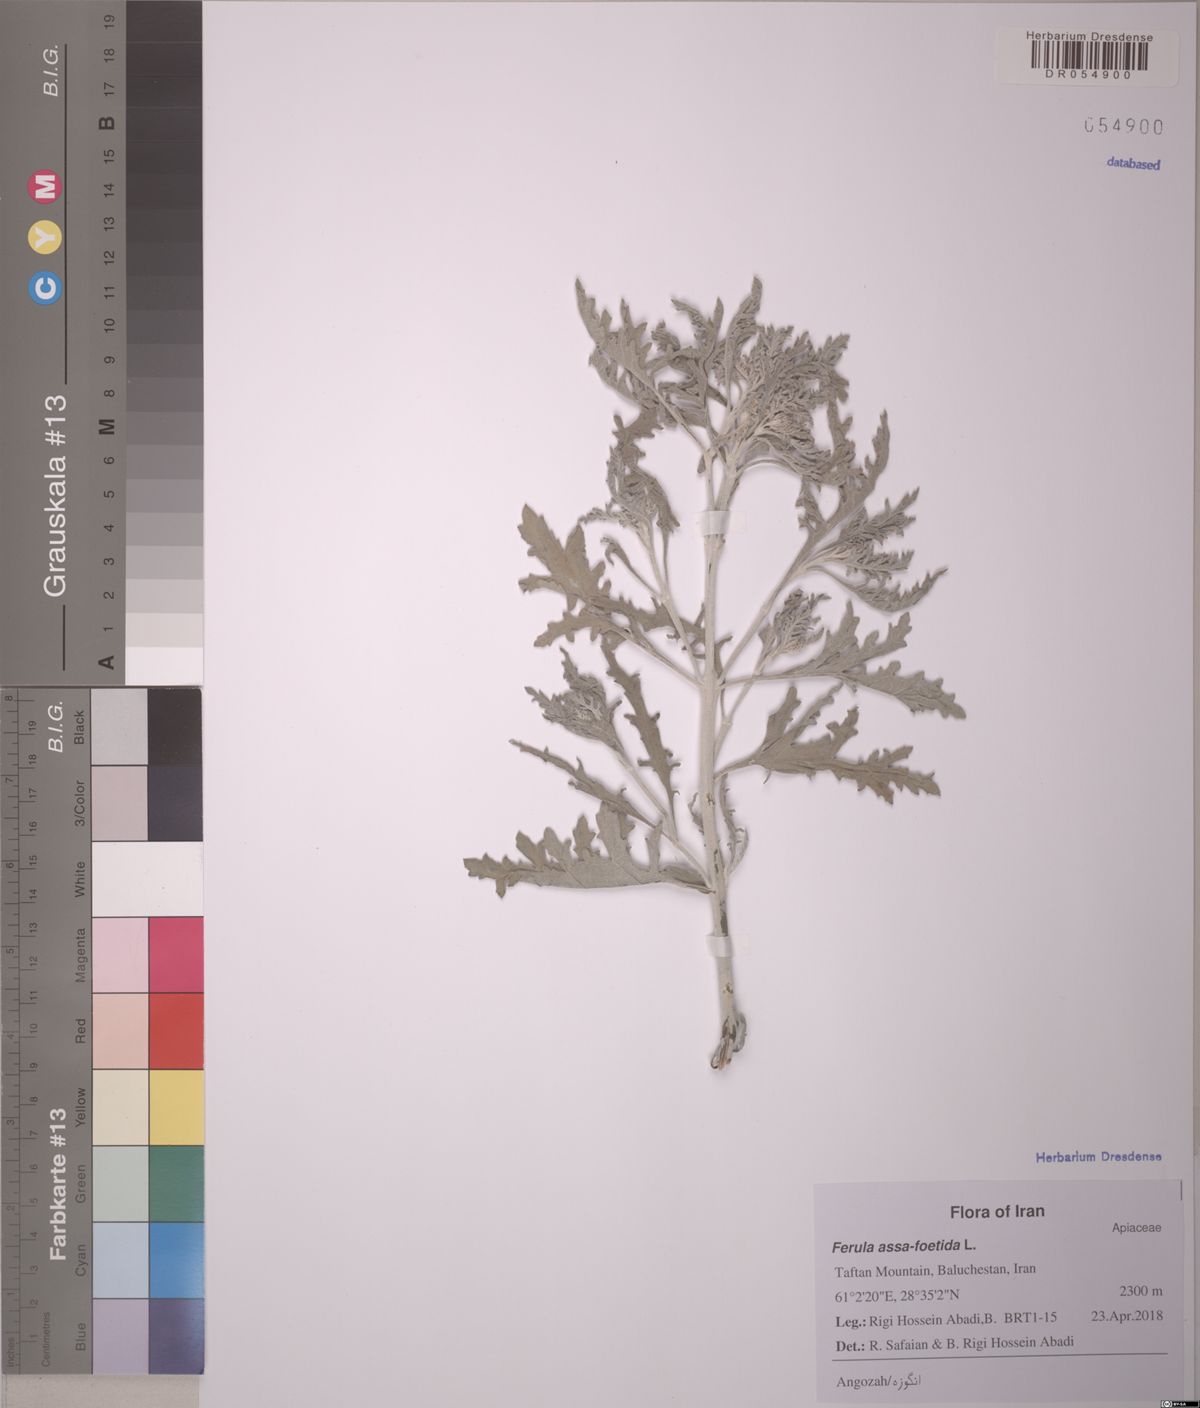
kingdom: Plantae
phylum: Tracheophyta
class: Magnoliopsida
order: Apiales
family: Apiaceae
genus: Ferula
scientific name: Ferula assa-foetida
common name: Assa-foetida
